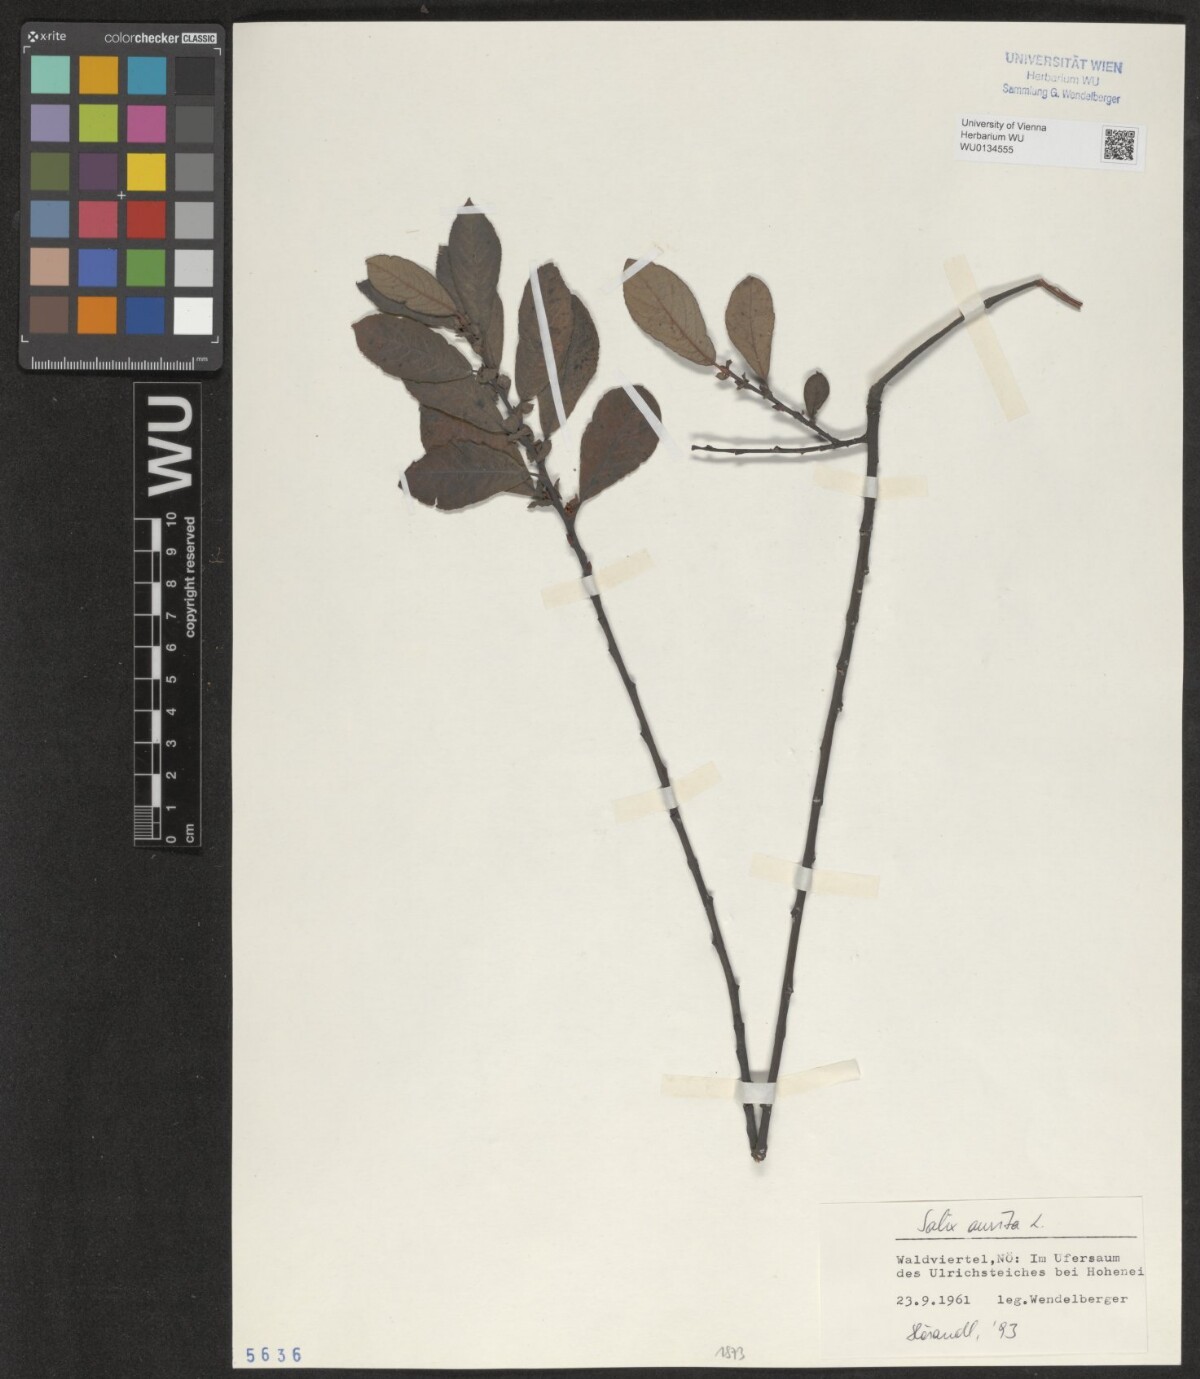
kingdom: Plantae
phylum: Tracheophyta
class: Magnoliopsida
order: Malpighiales
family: Salicaceae
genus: Salix
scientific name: Salix aurita
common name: Eared willow
